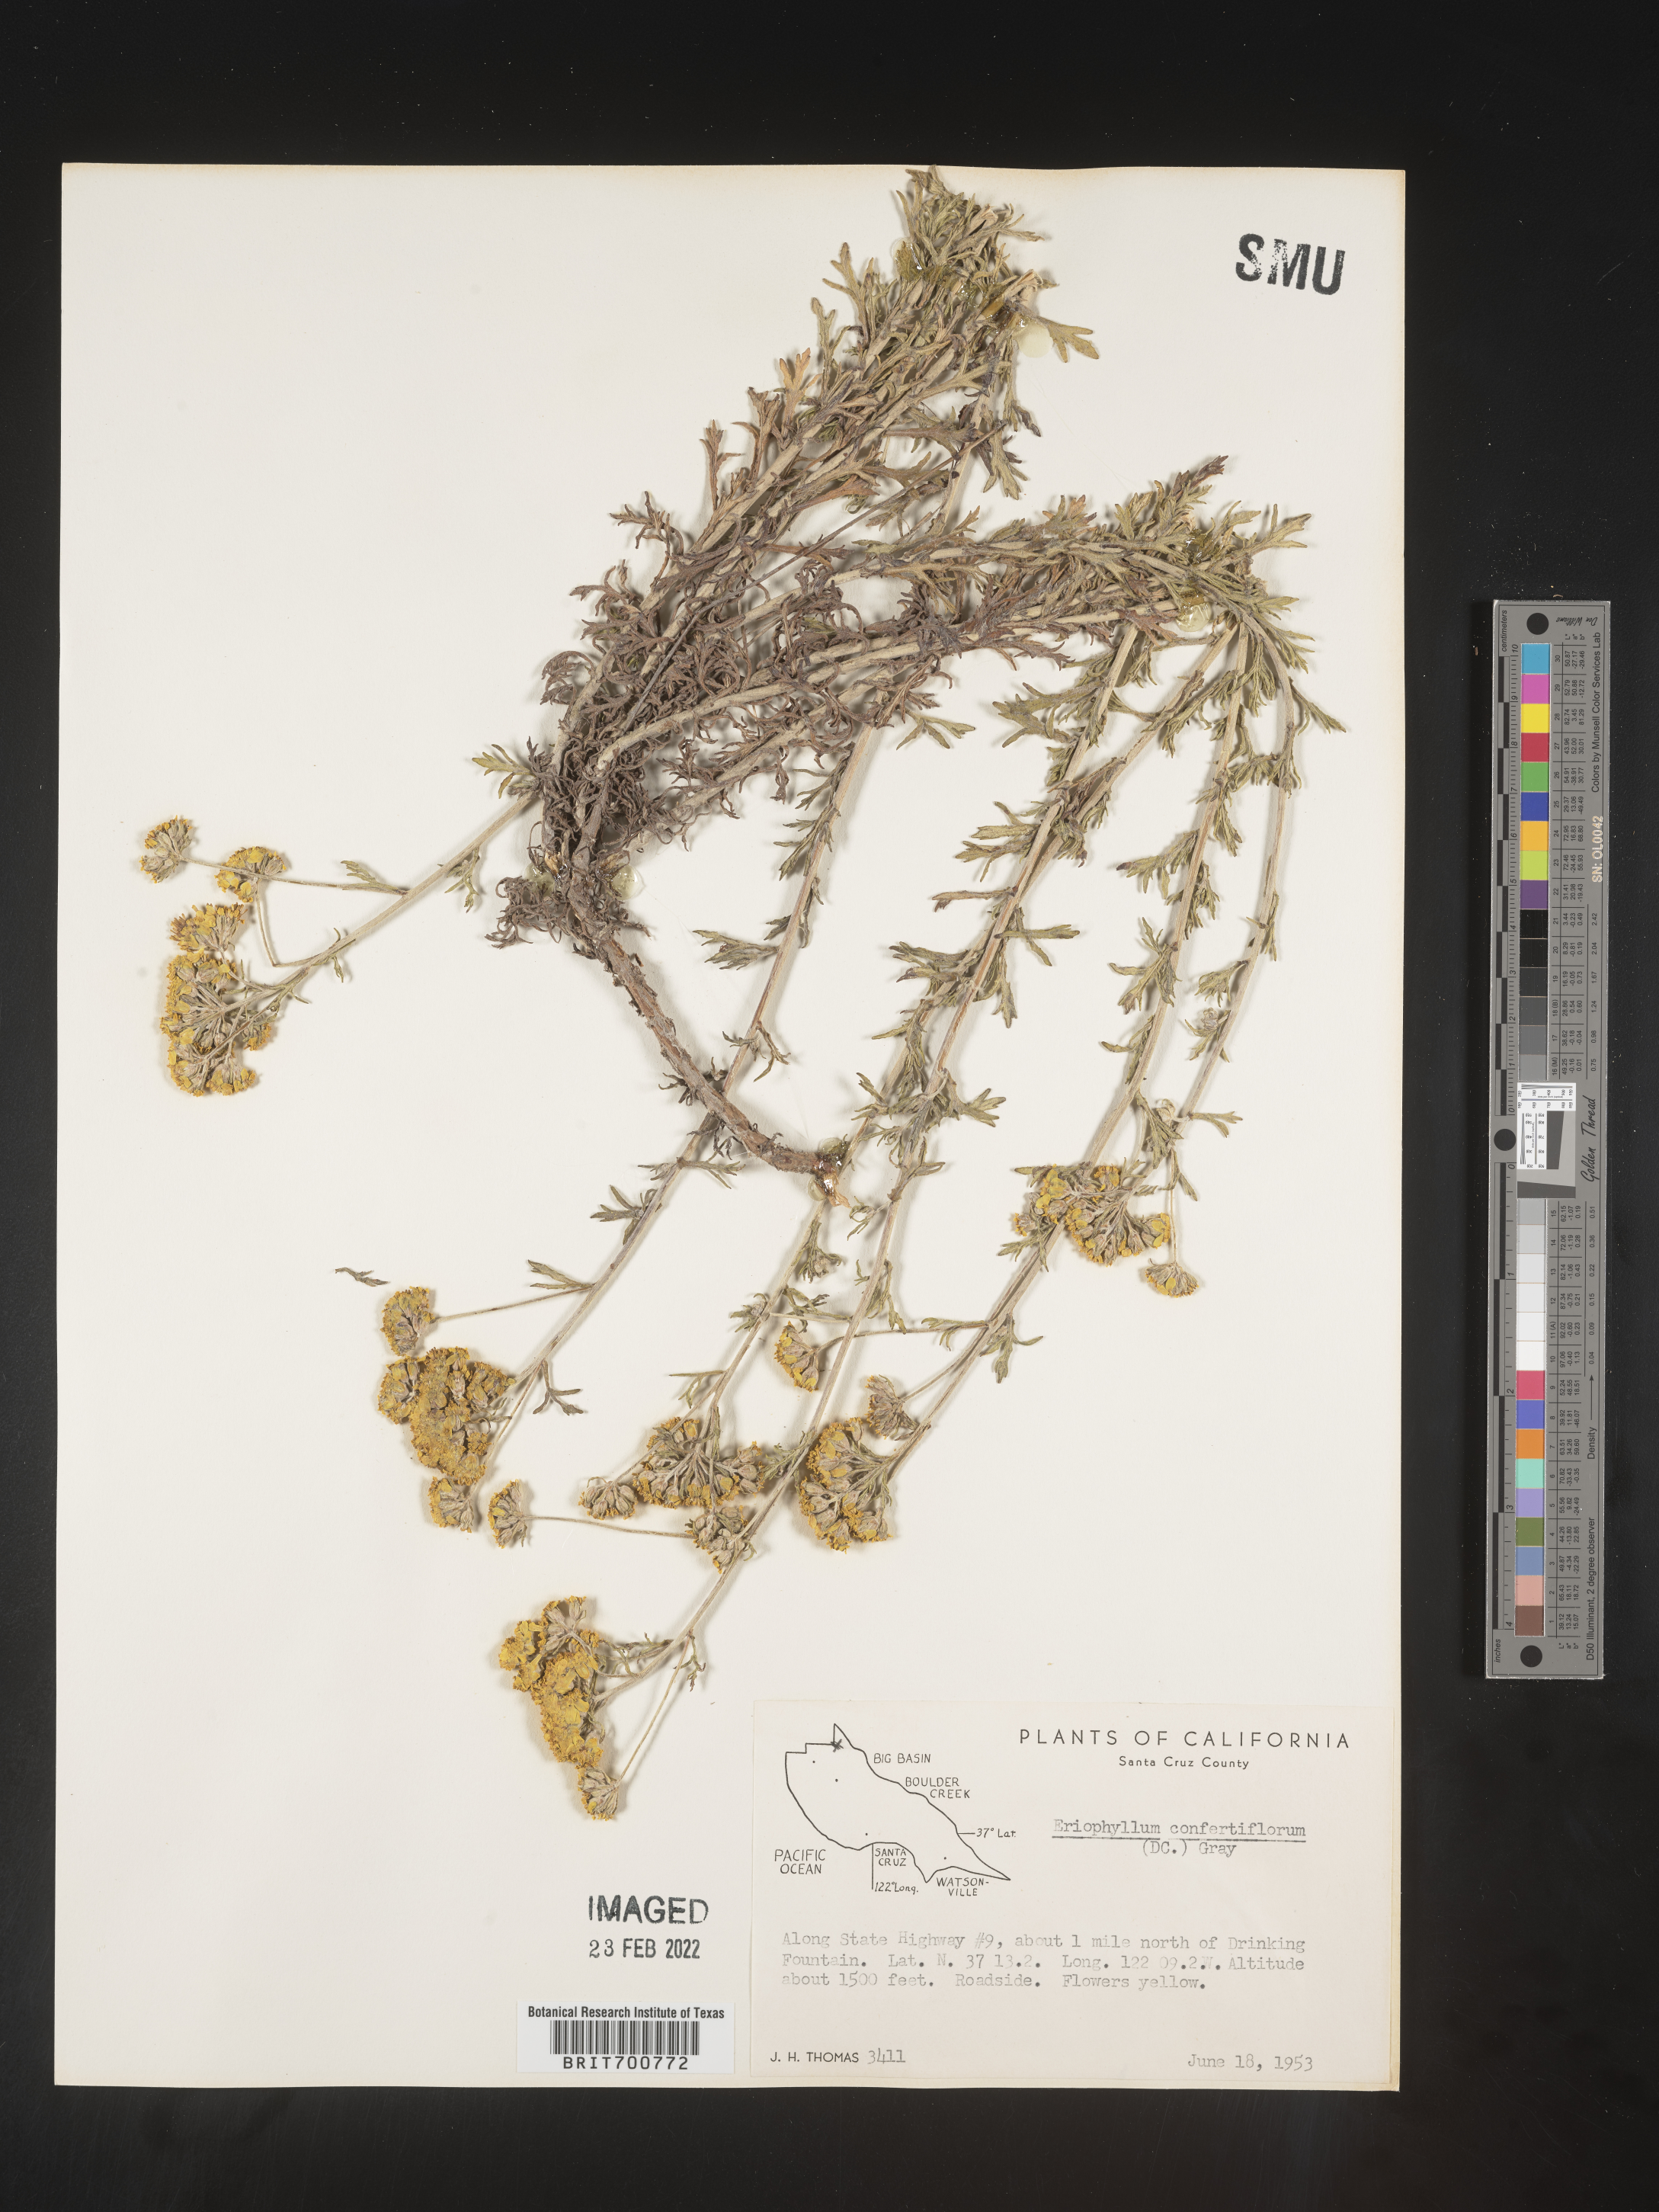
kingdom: Plantae
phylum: Tracheophyta
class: Magnoliopsida
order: Asterales
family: Asteraceae
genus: Eriophyllum
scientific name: Eriophyllum confertiflorum
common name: Golden-yarrow
